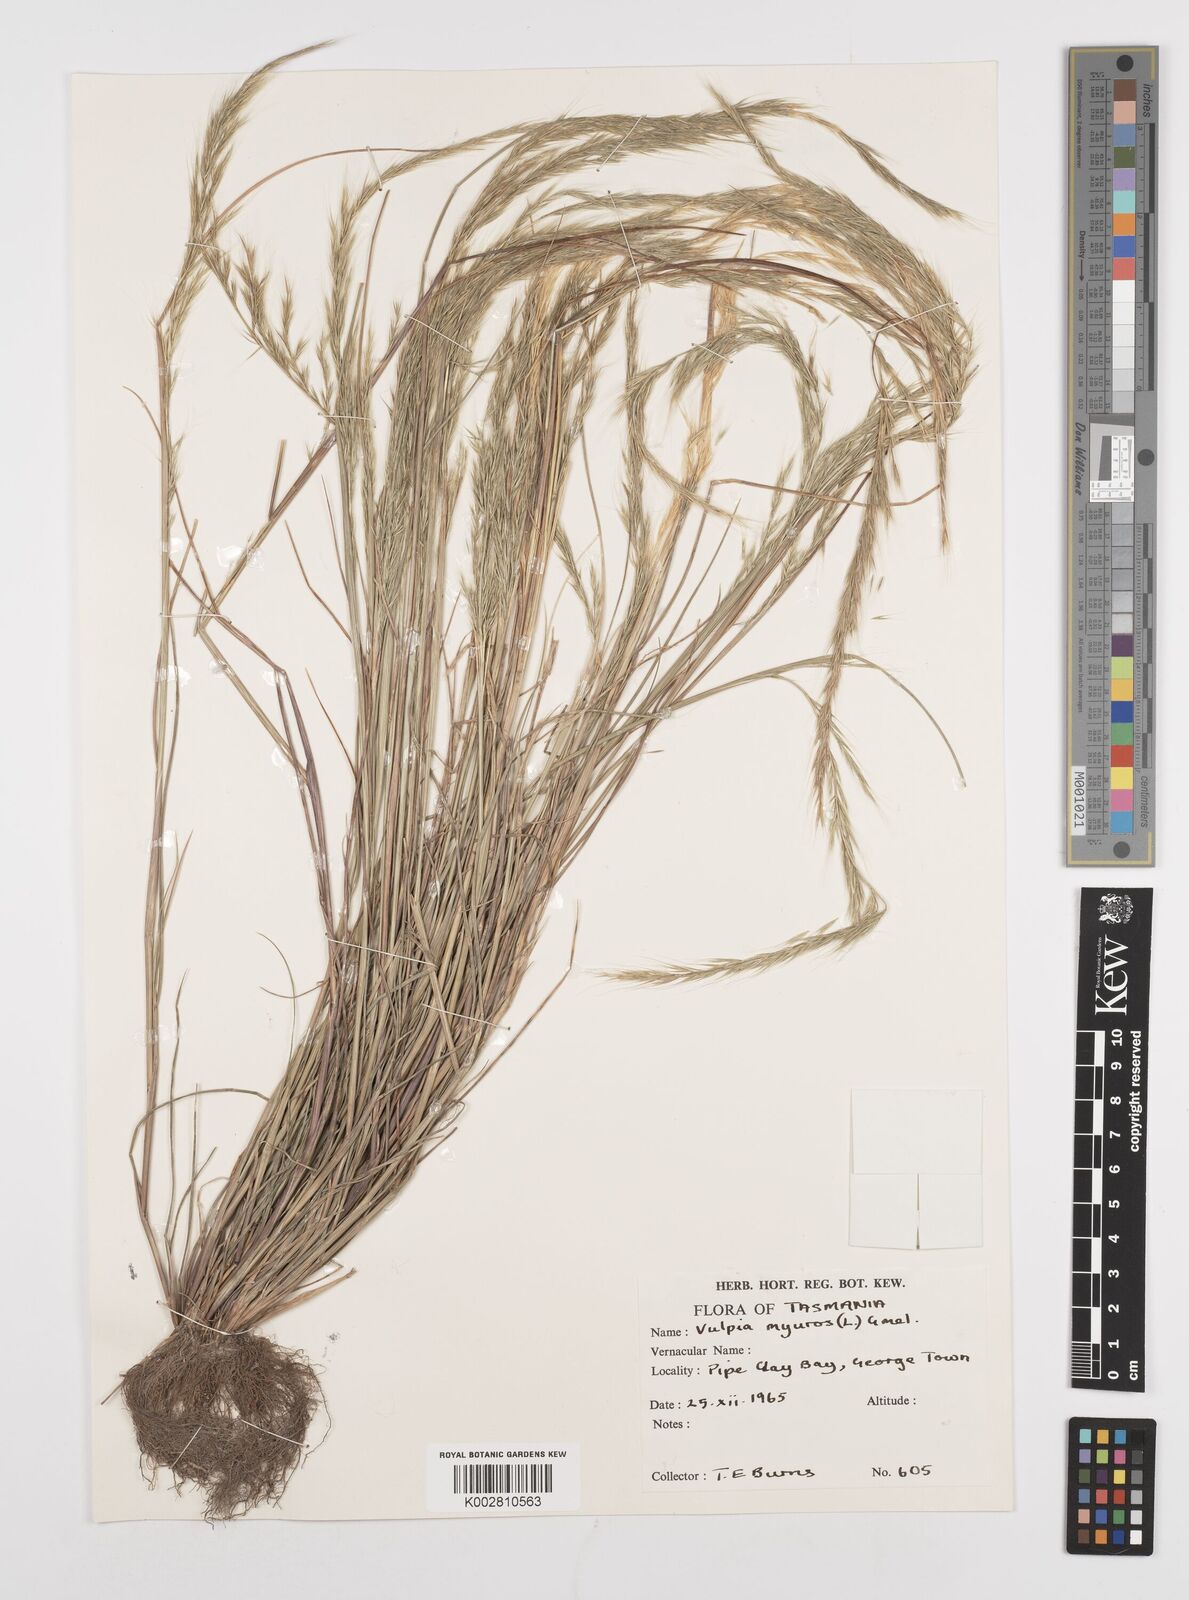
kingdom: Plantae
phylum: Tracheophyta
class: Liliopsida
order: Poales
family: Poaceae
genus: Festuca
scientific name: Festuca myuros
